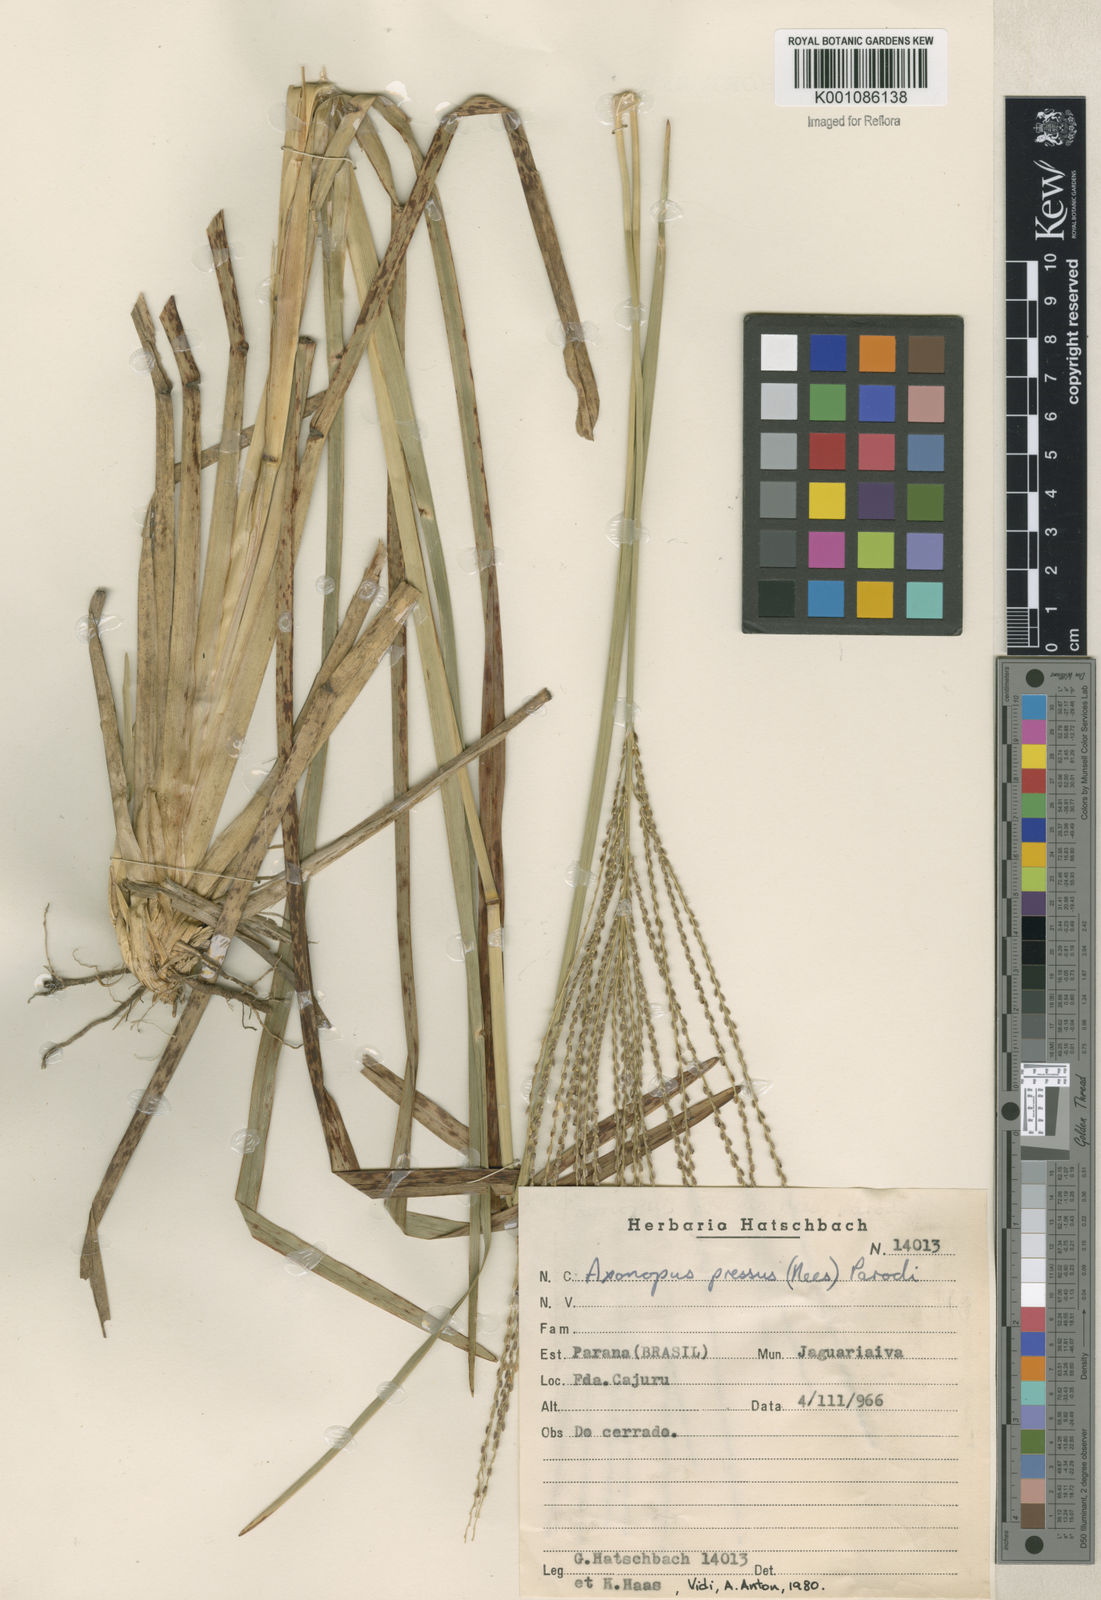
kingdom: Plantae
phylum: Tracheophyta
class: Liliopsida
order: Poales
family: Poaceae
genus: Axonopus
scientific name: Axonopus pressus
